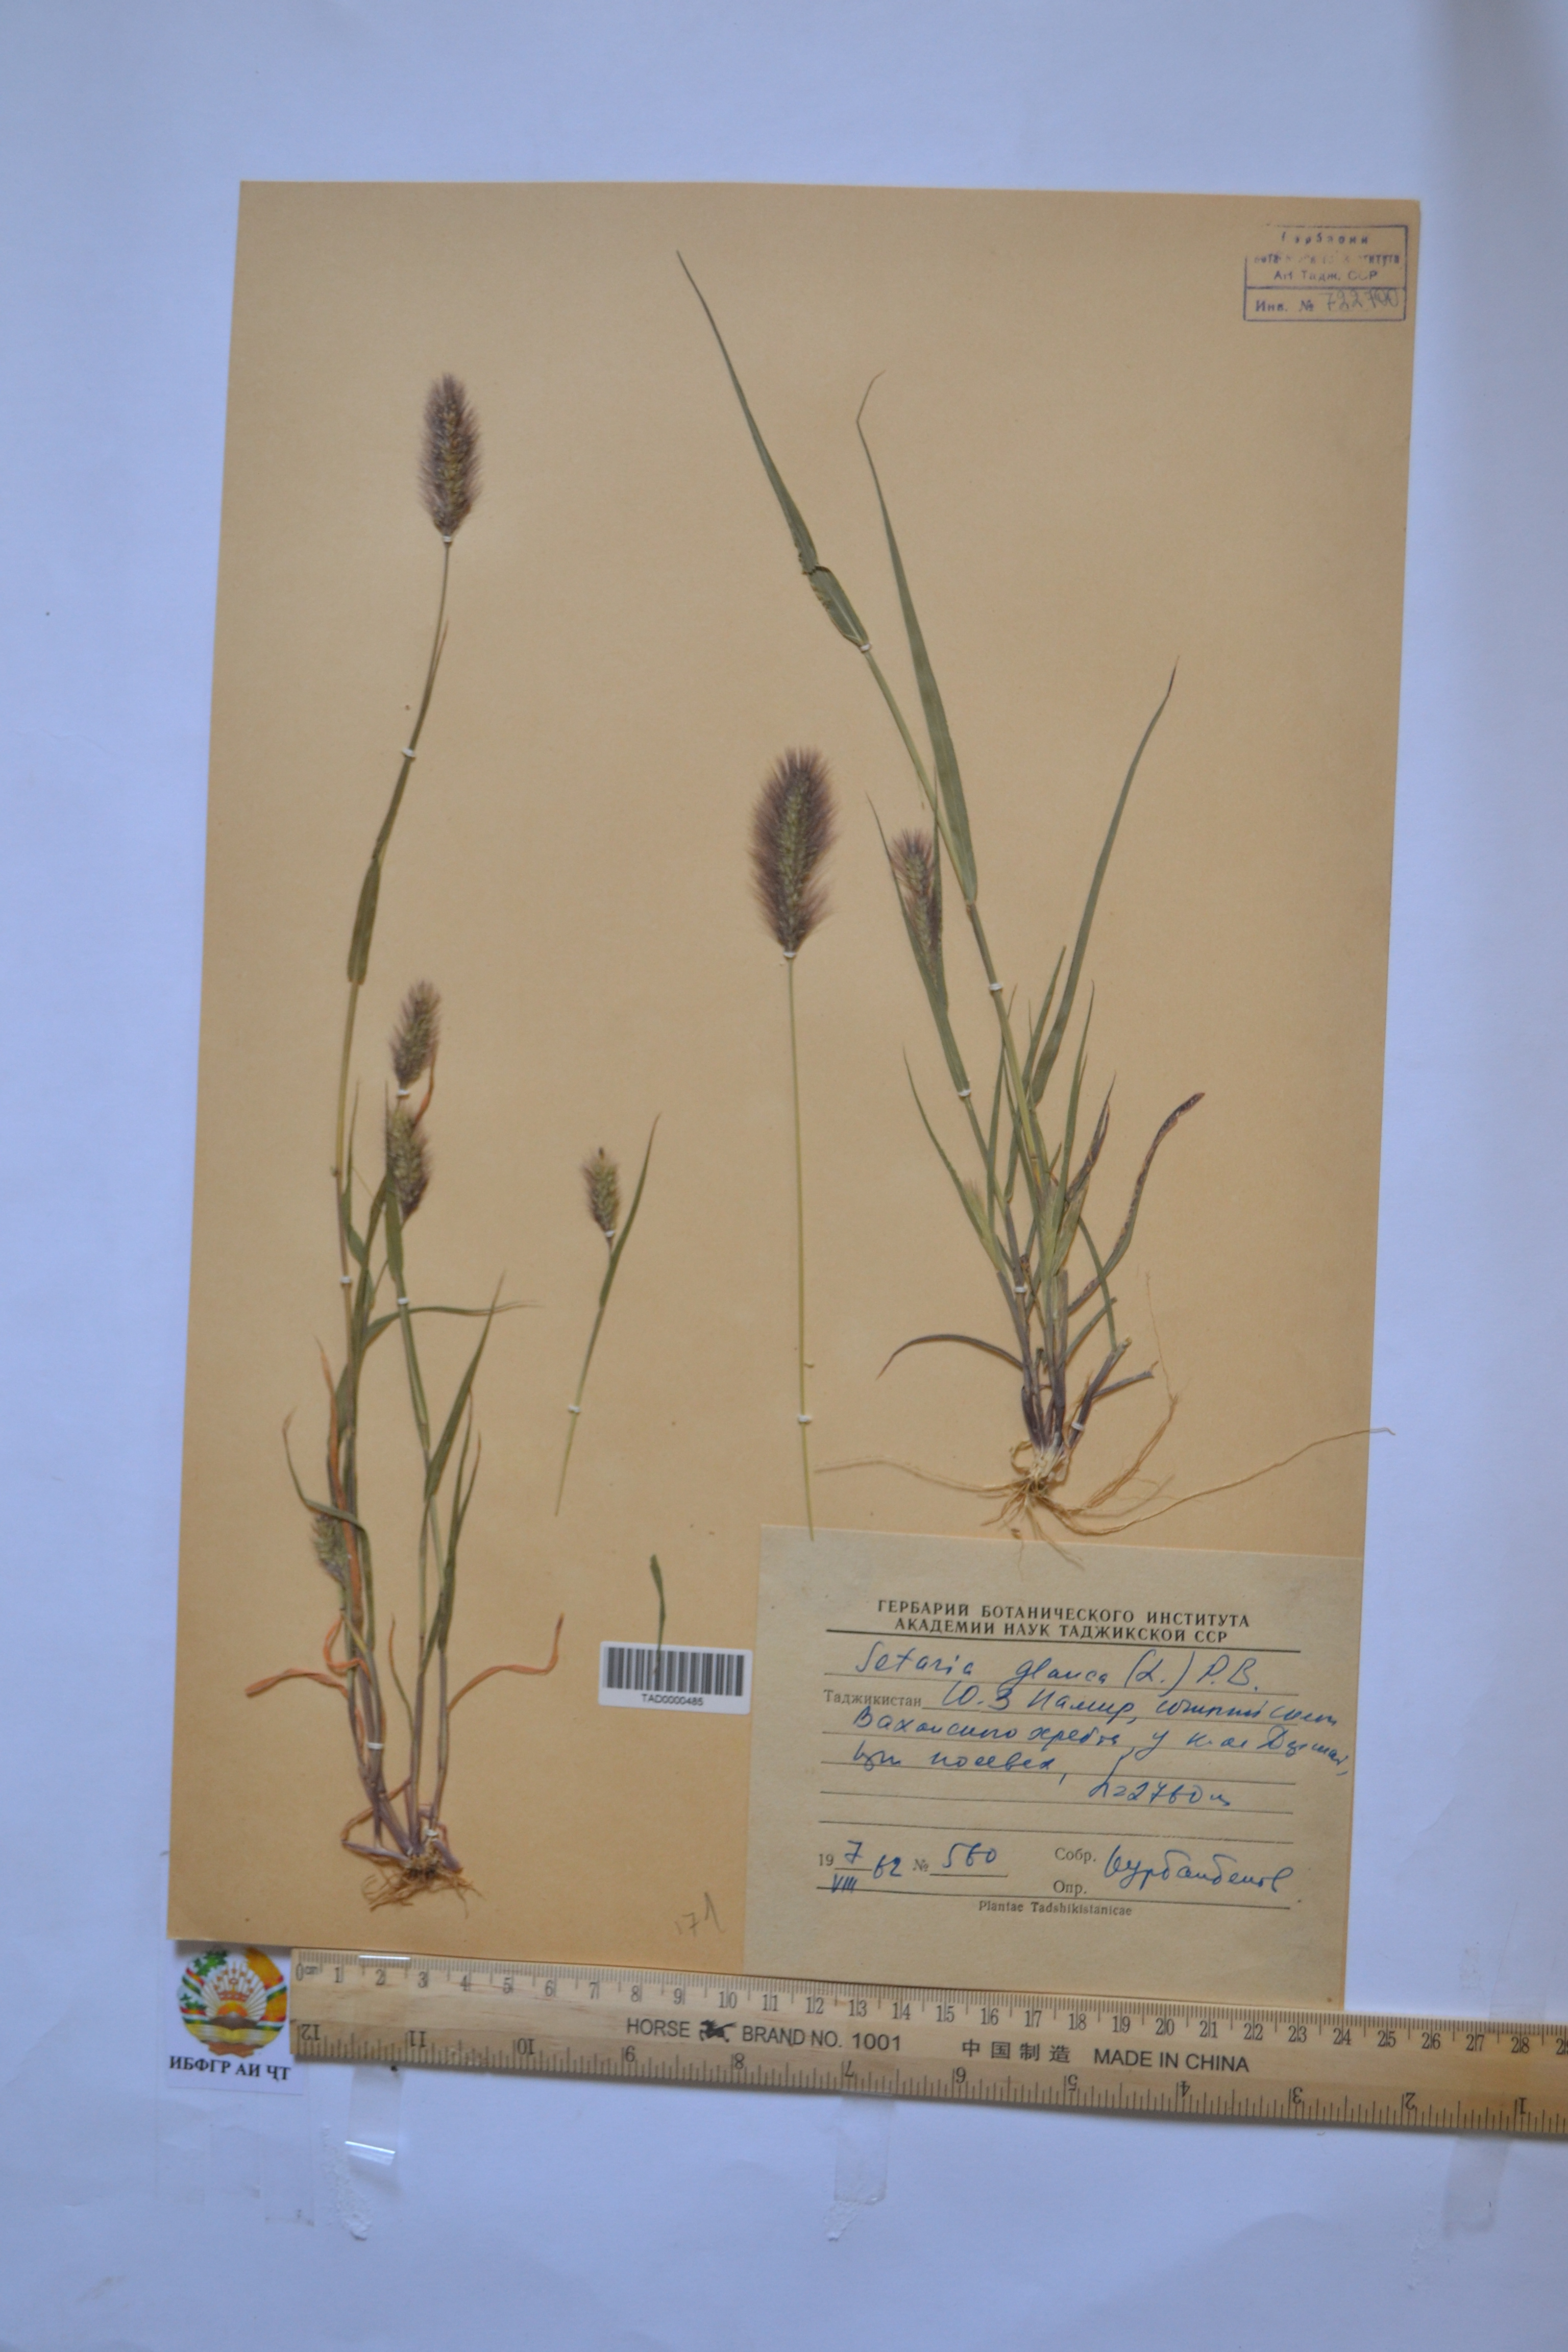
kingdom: Plantae
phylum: Tracheophyta
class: Liliopsida
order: Poales
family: Poaceae
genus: Cenchrus
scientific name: Cenchrus americanus
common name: Pearl millet
